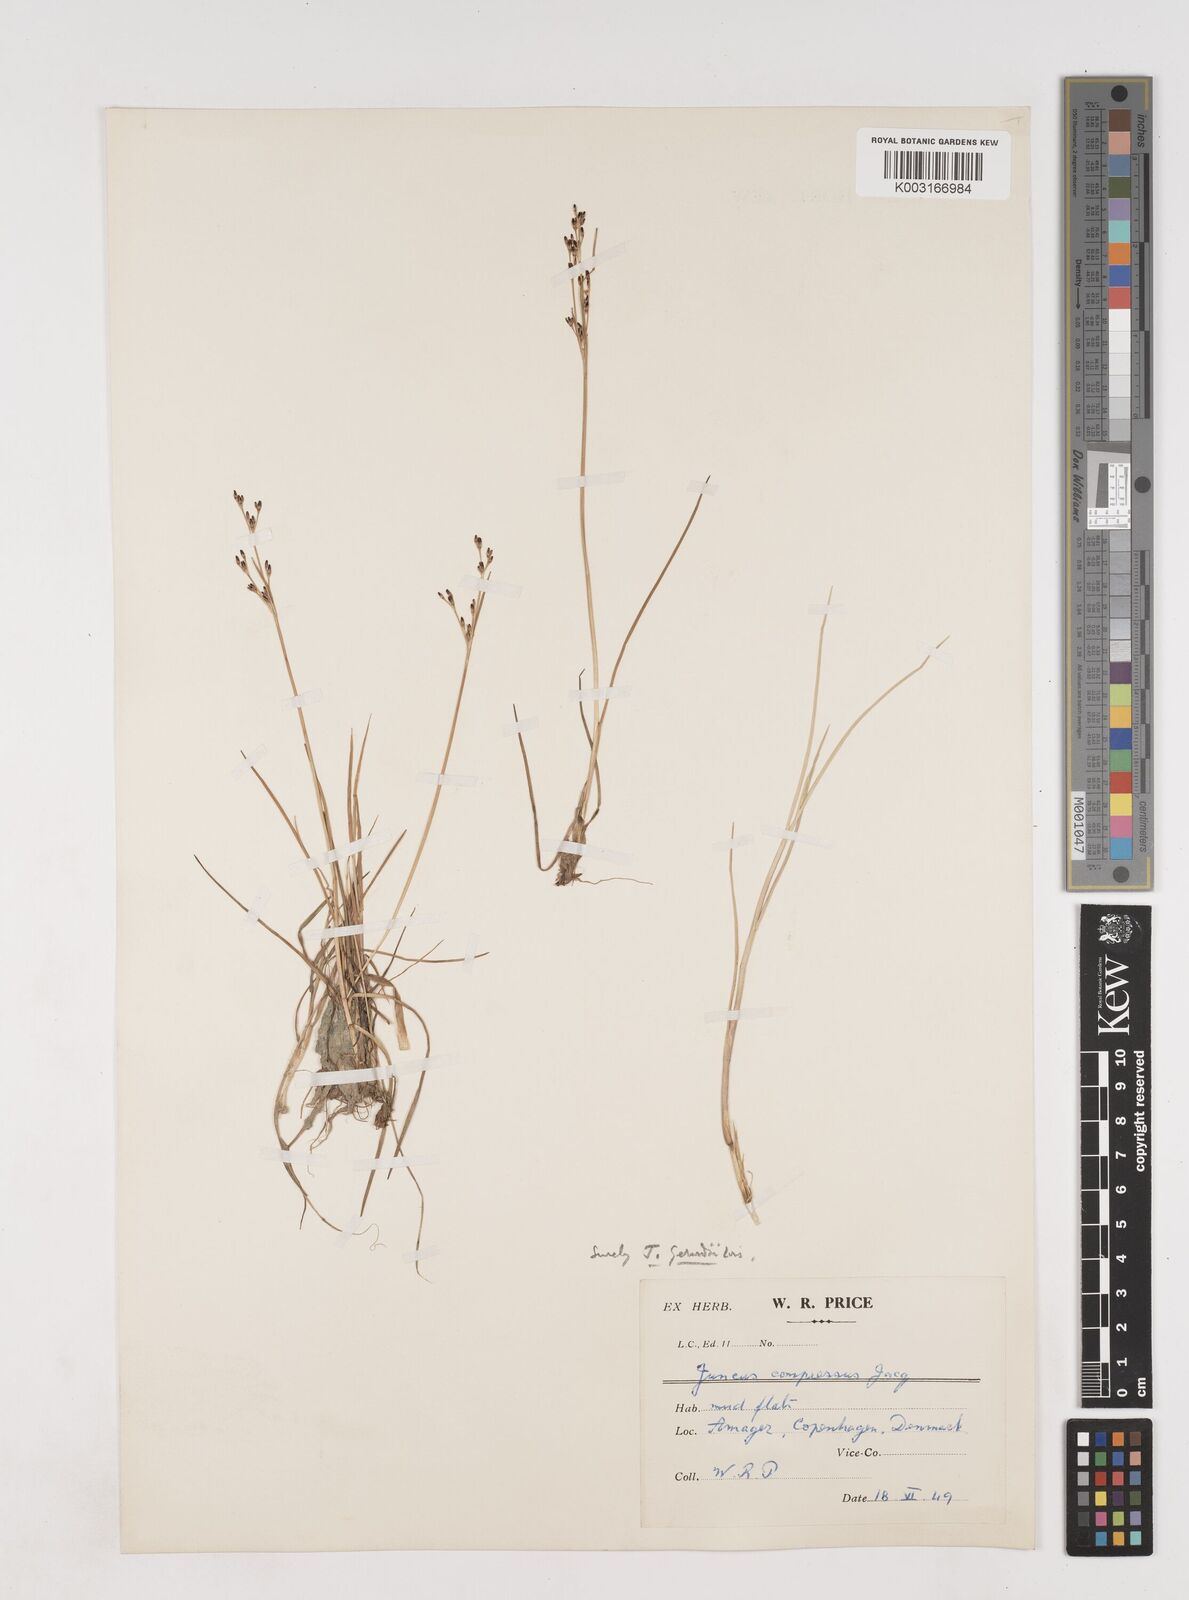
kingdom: Plantae
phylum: Tracheophyta
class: Liliopsida
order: Poales
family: Juncaceae
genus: Juncus
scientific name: Juncus gerardi
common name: Saltmarsh rush
